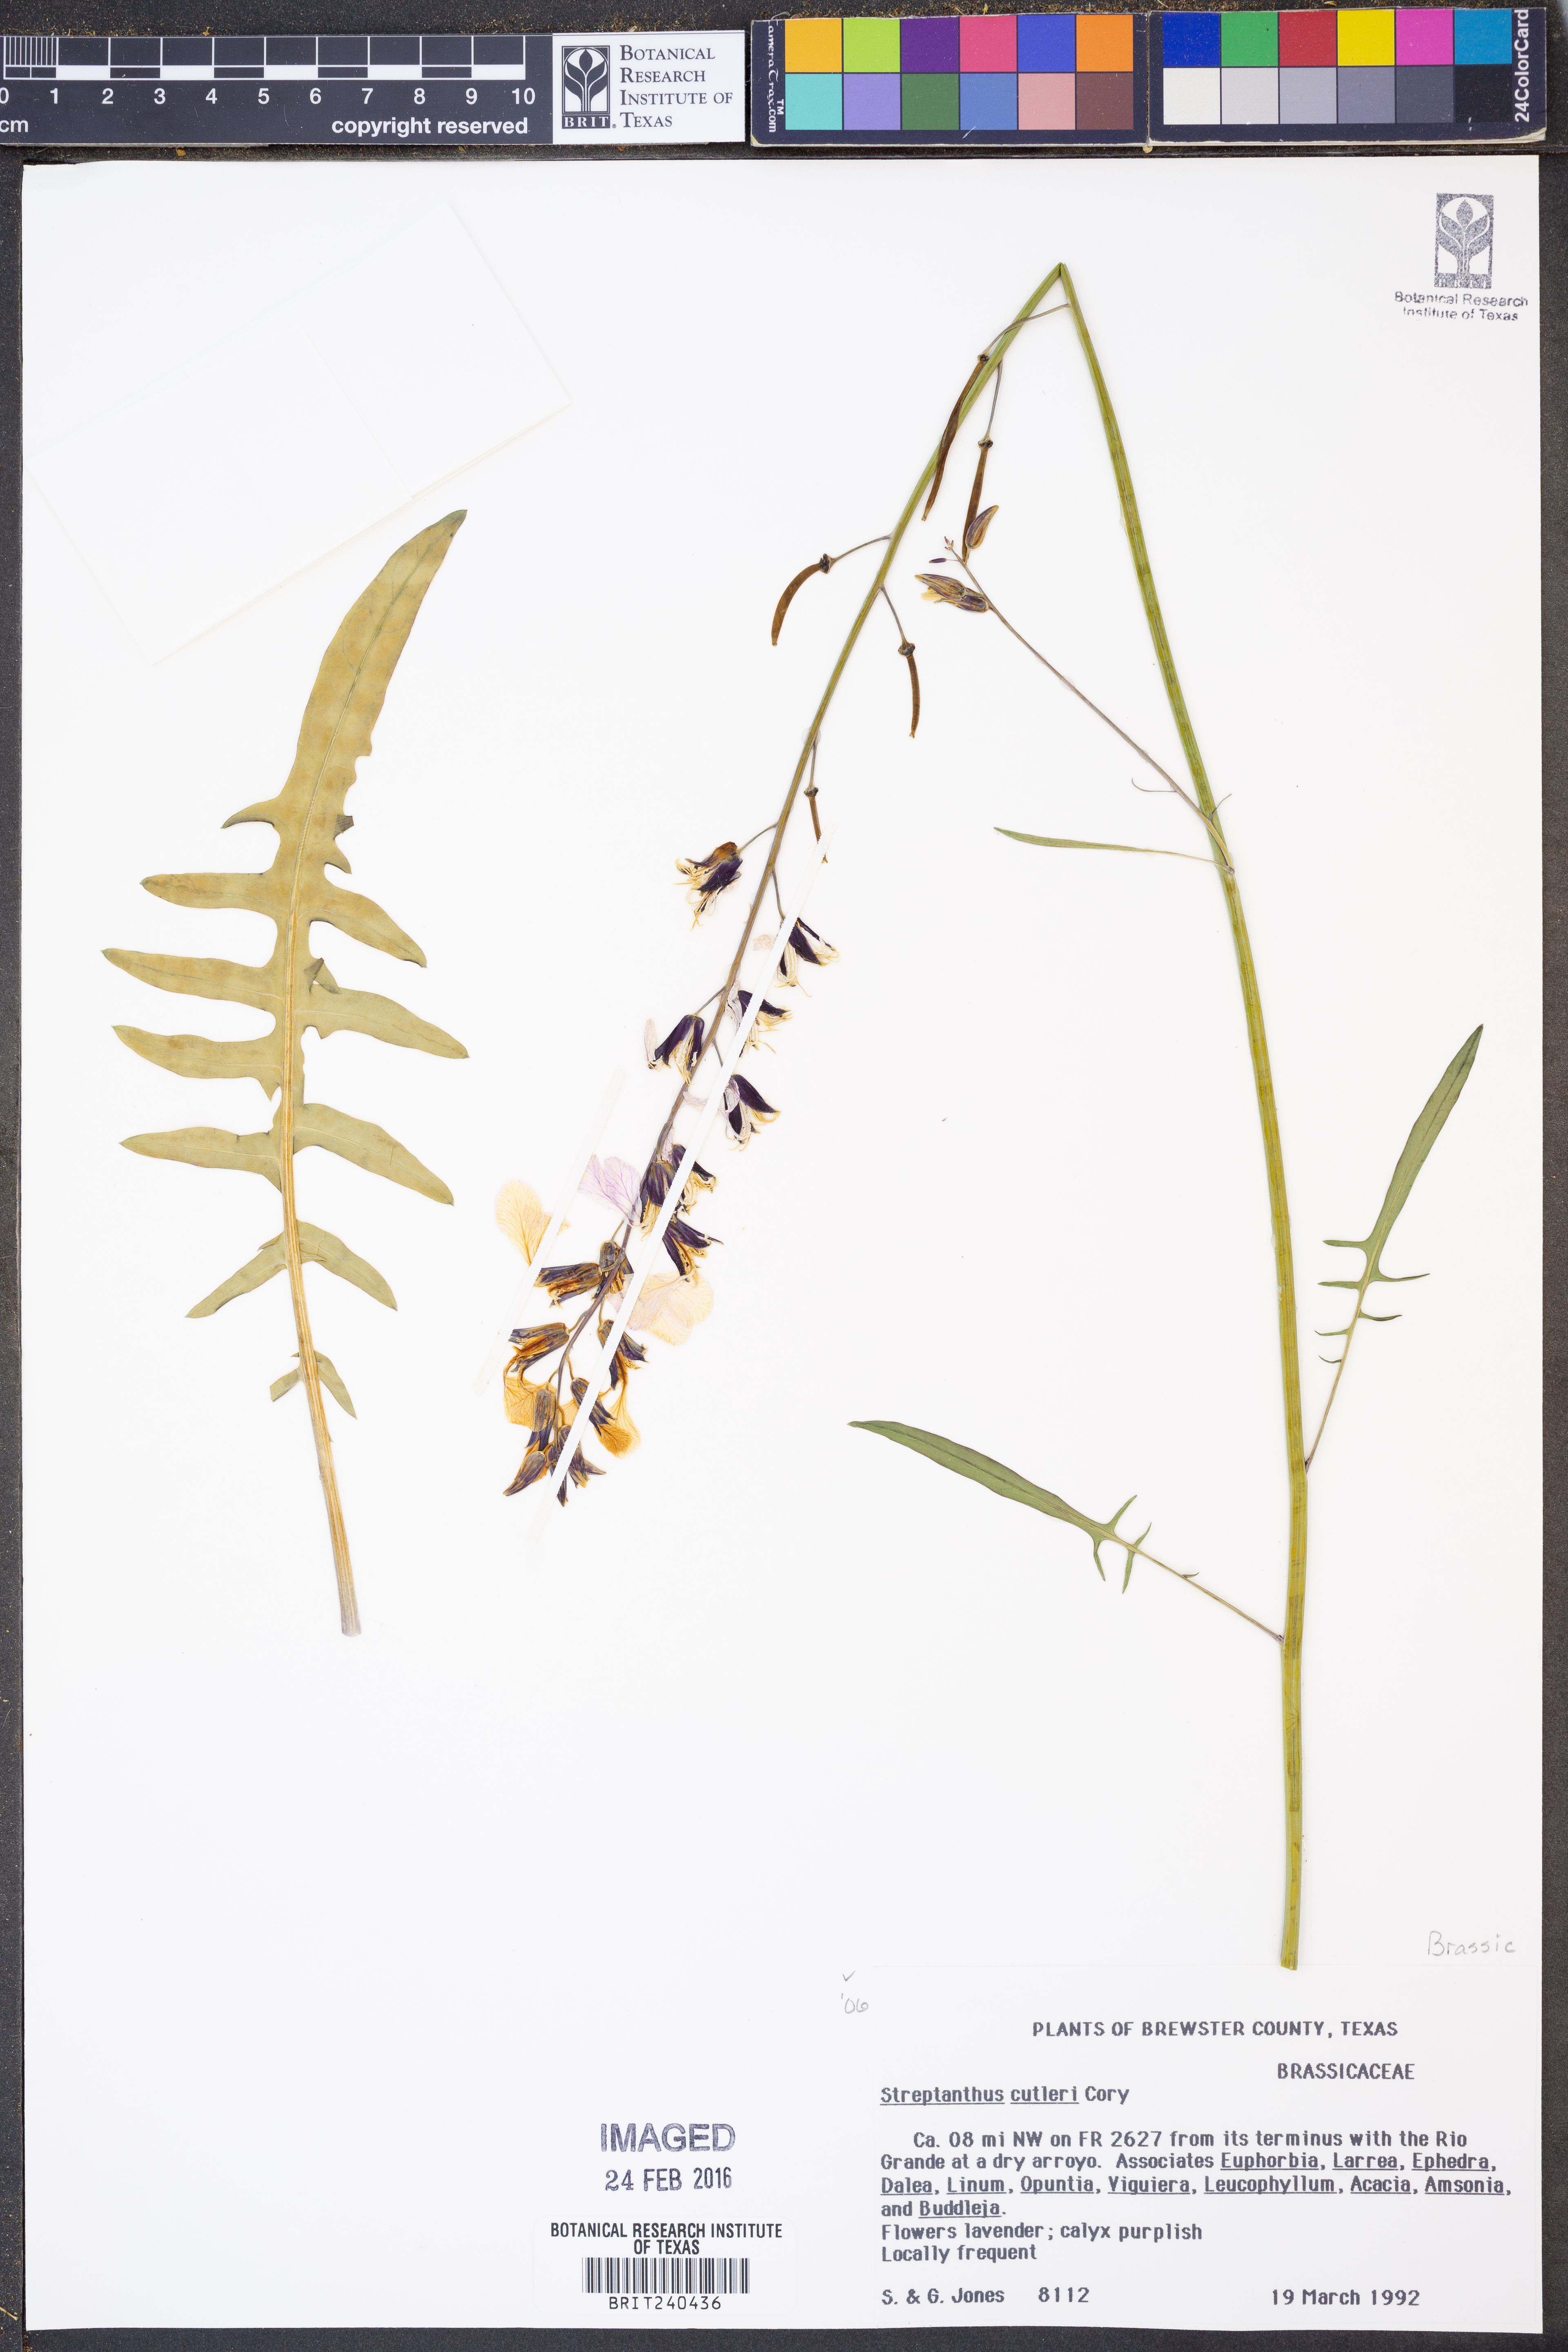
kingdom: Plantae
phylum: Tracheophyta
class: Magnoliopsida
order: Brassicales
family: Brassicaceae
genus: Streptanthus
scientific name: Streptanthus cutleri
